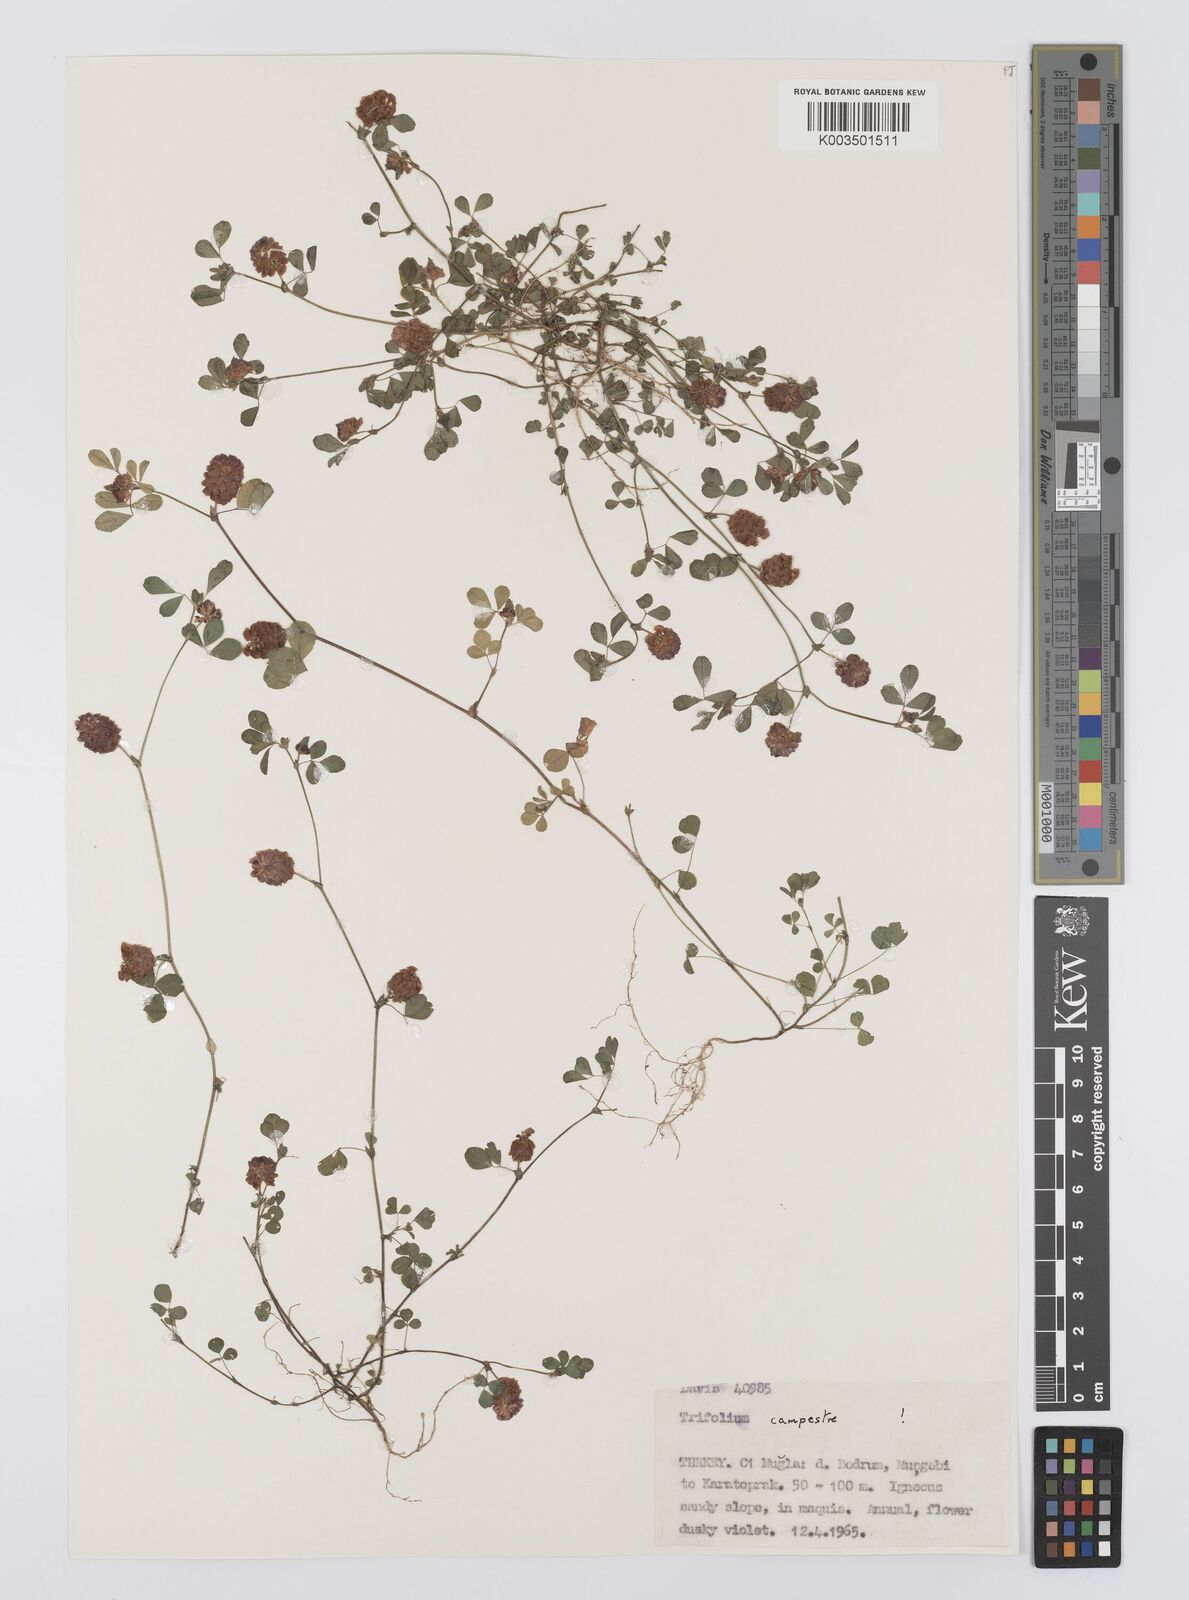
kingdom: Plantae
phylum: Tracheophyta
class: Magnoliopsida
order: Fabales
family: Fabaceae
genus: Trifolium
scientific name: Trifolium campestre
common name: Field clover
